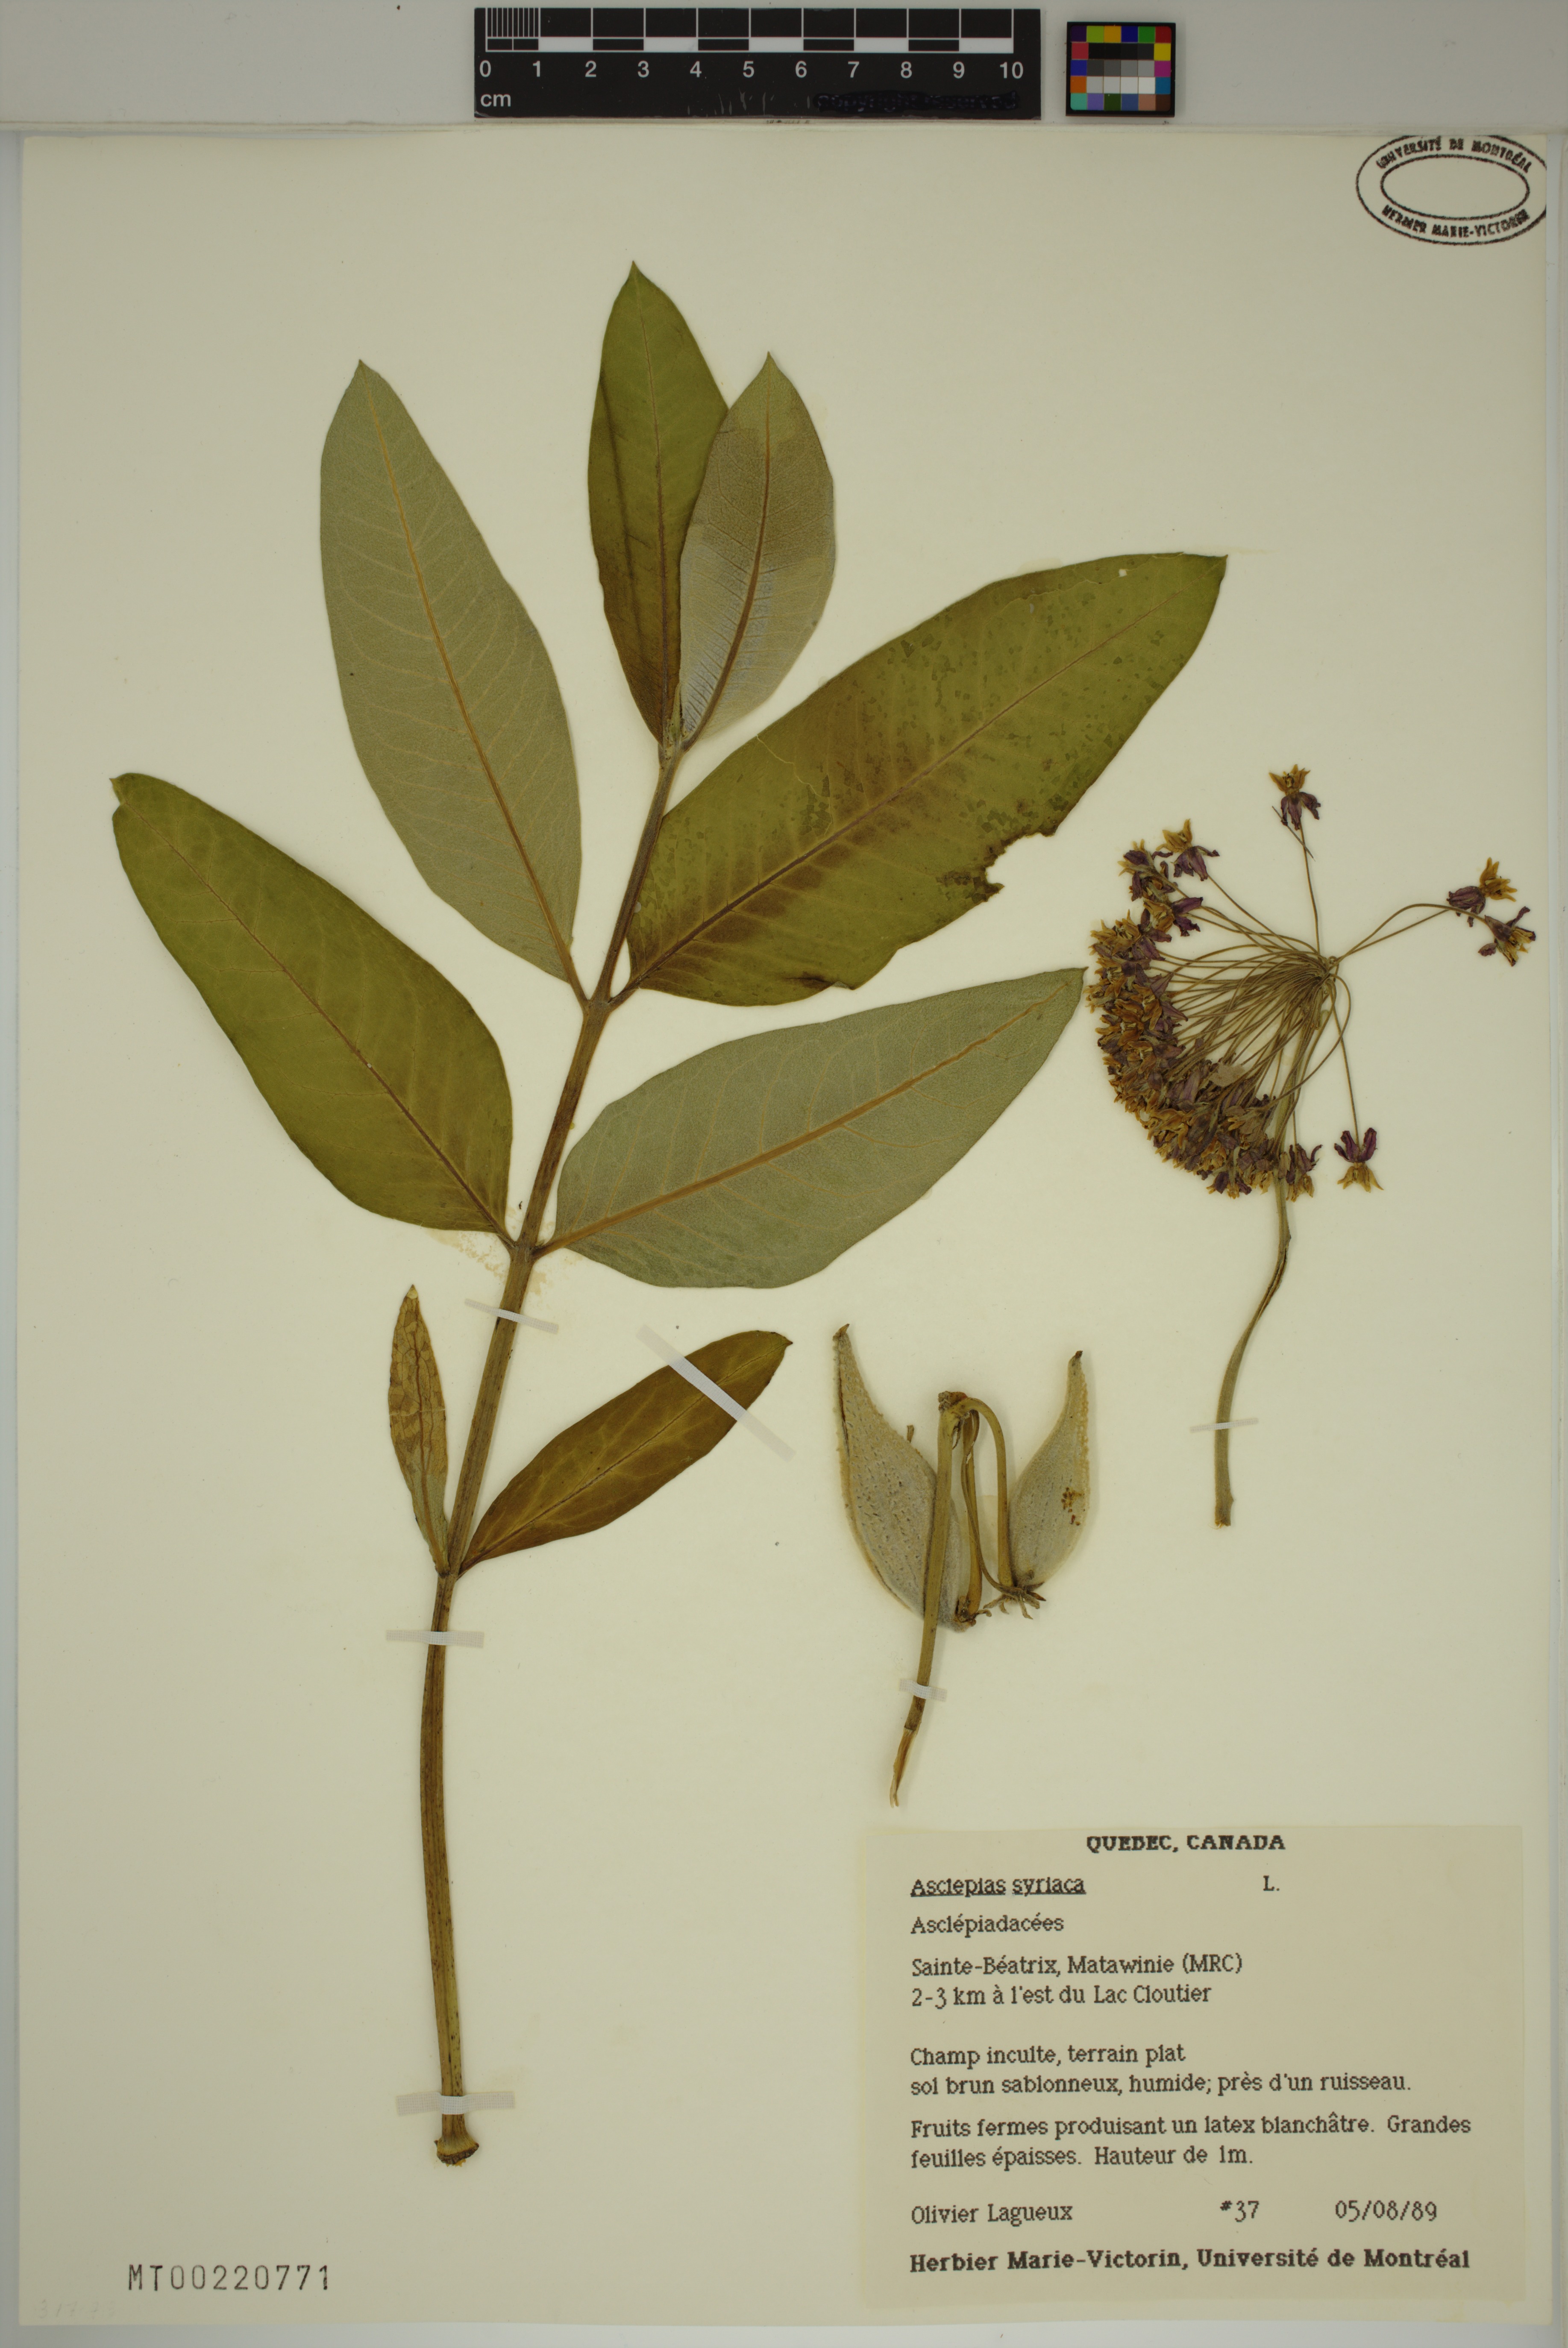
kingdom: Plantae
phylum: Tracheophyta
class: Magnoliopsida
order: Gentianales
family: Apocynaceae
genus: Asclepias
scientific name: Asclepias syriaca
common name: Common milkweed
